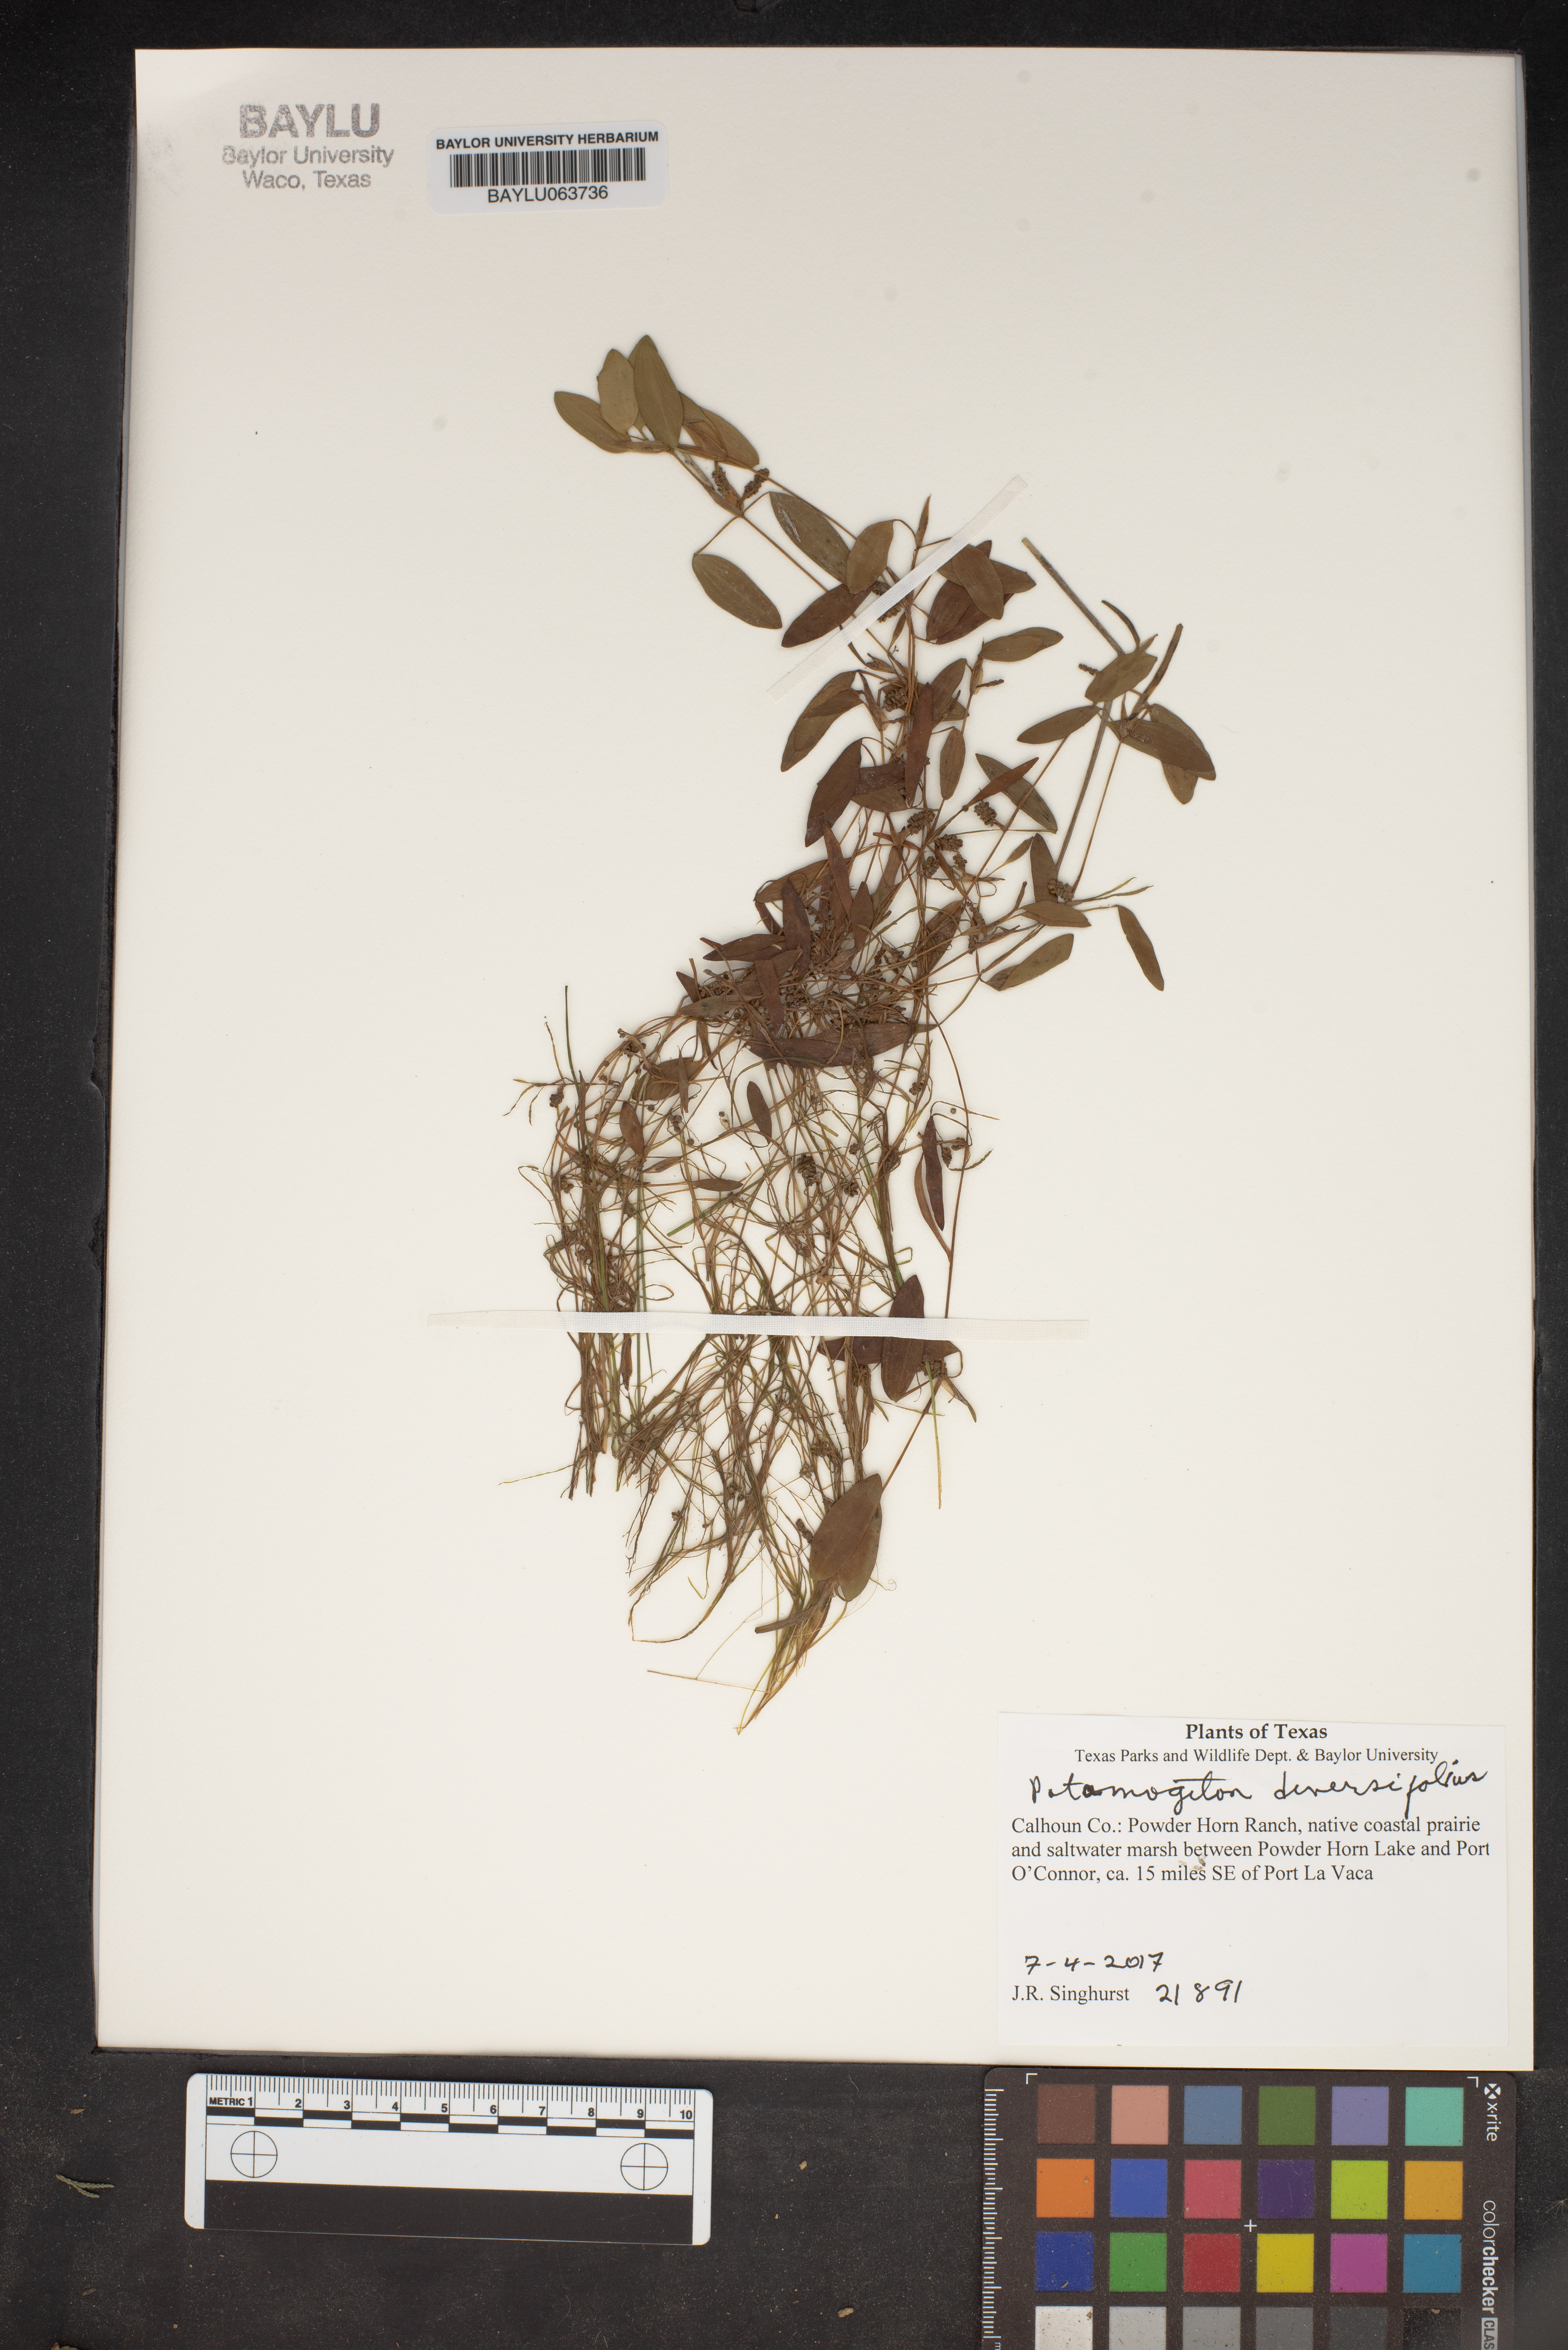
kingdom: Plantae
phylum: Tracheophyta
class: Liliopsida
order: Alismatales
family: Potamogetonaceae
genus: Potamogeton
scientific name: Potamogeton diversifolius
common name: Water-thread pondweed
